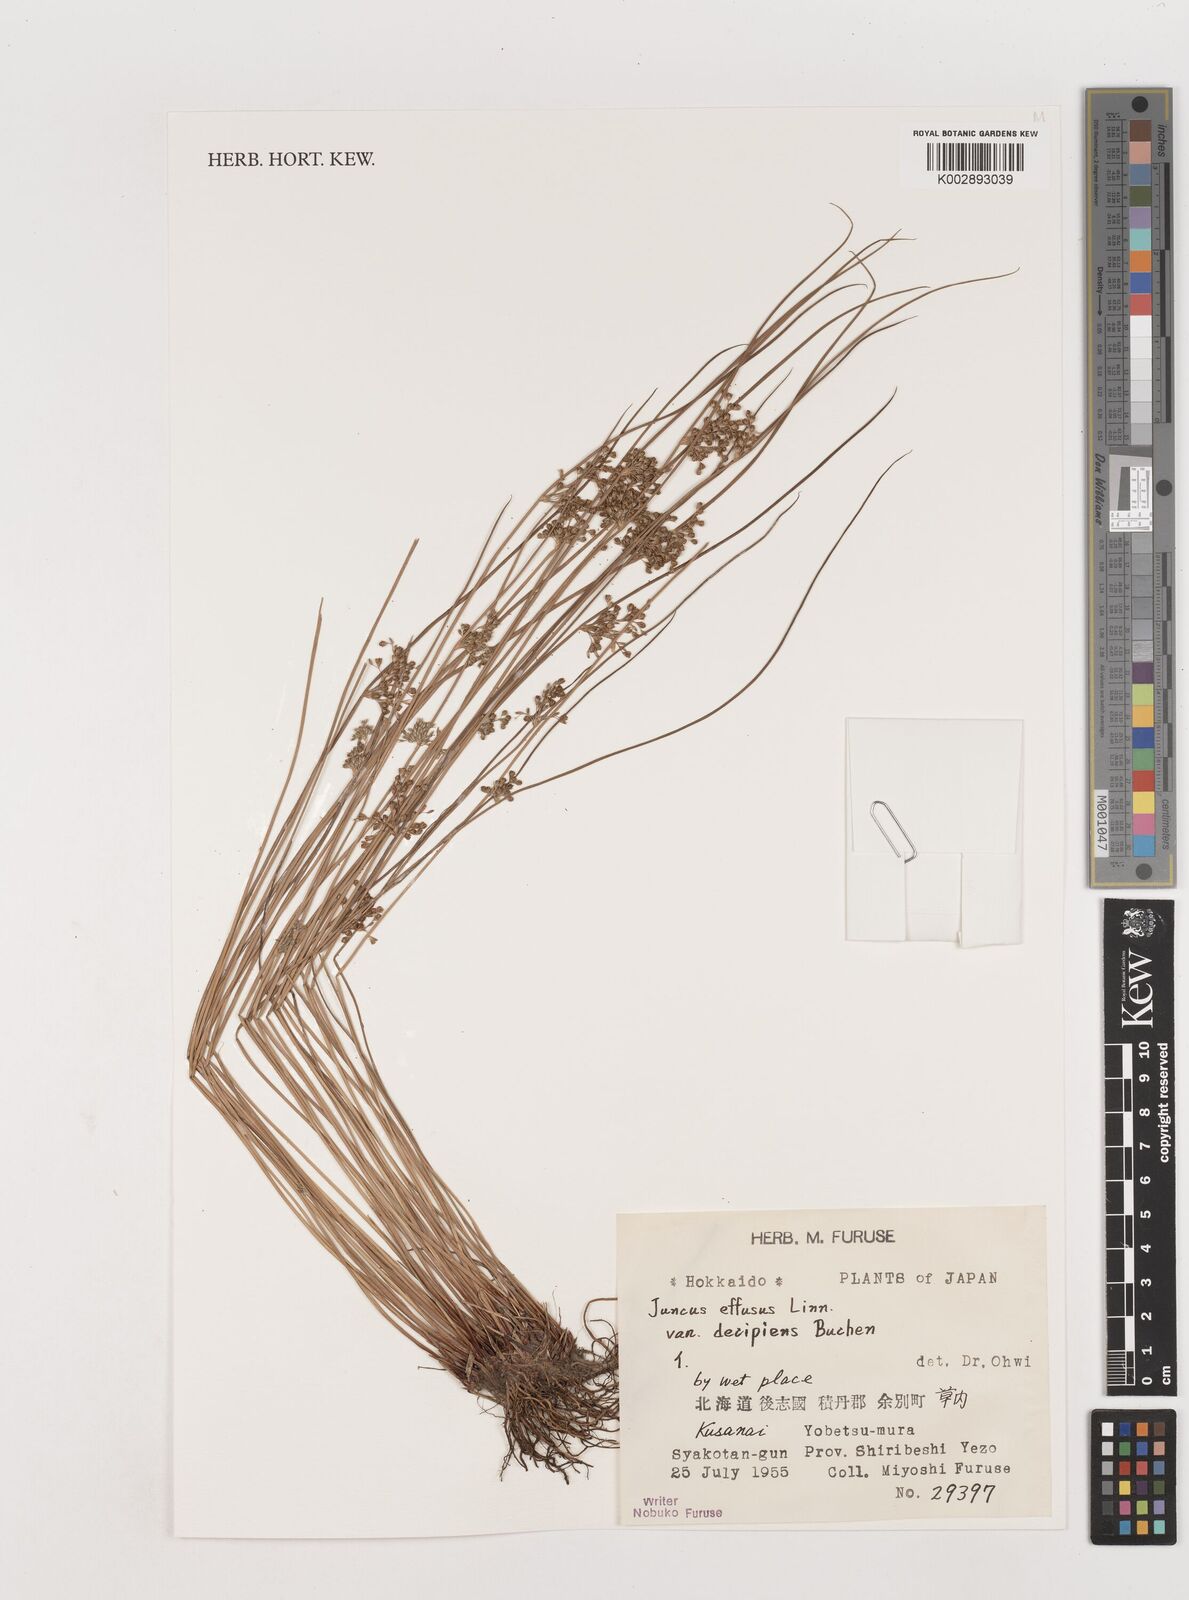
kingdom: Plantae
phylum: Tracheophyta
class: Liliopsida
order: Poales
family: Juncaceae
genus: Juncus
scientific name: Juncus decipiens
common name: Lamp rush
